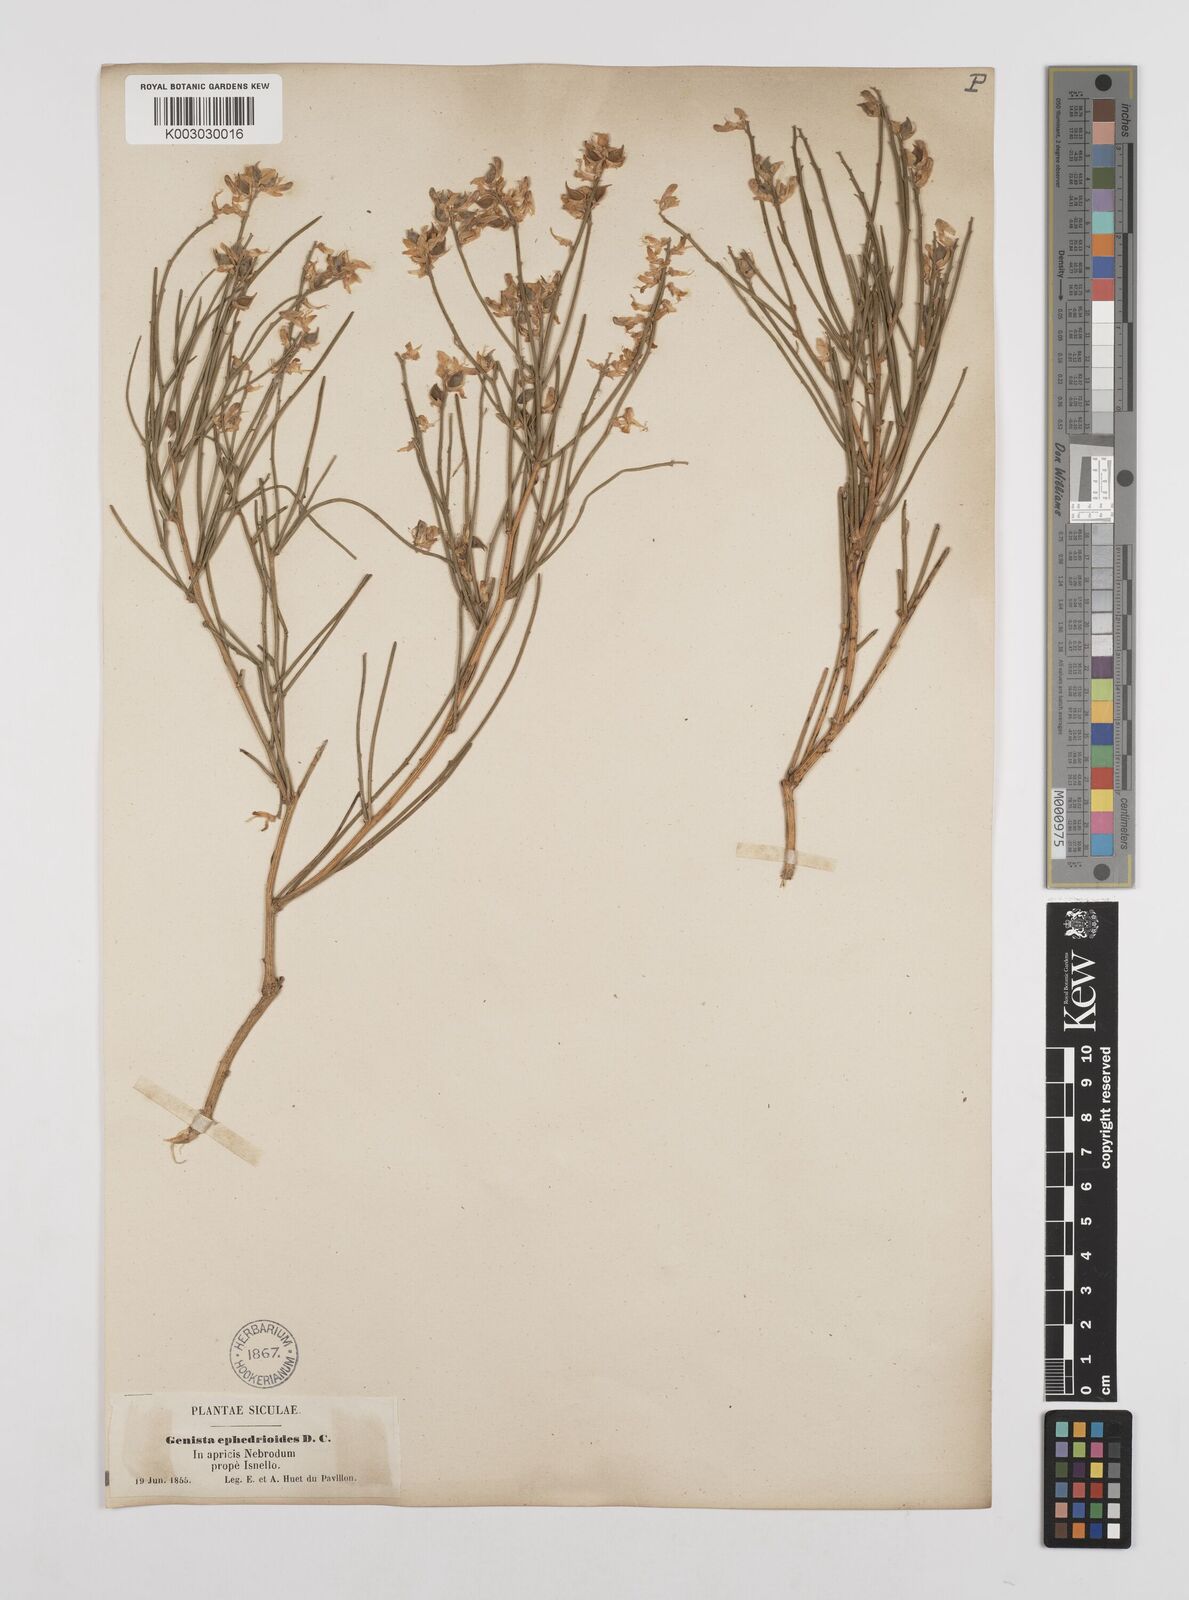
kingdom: Plantae
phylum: Tracheophyta
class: Magnoliopsida
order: Fabales
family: Fabaceae
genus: Genista
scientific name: Genista ephedroides
